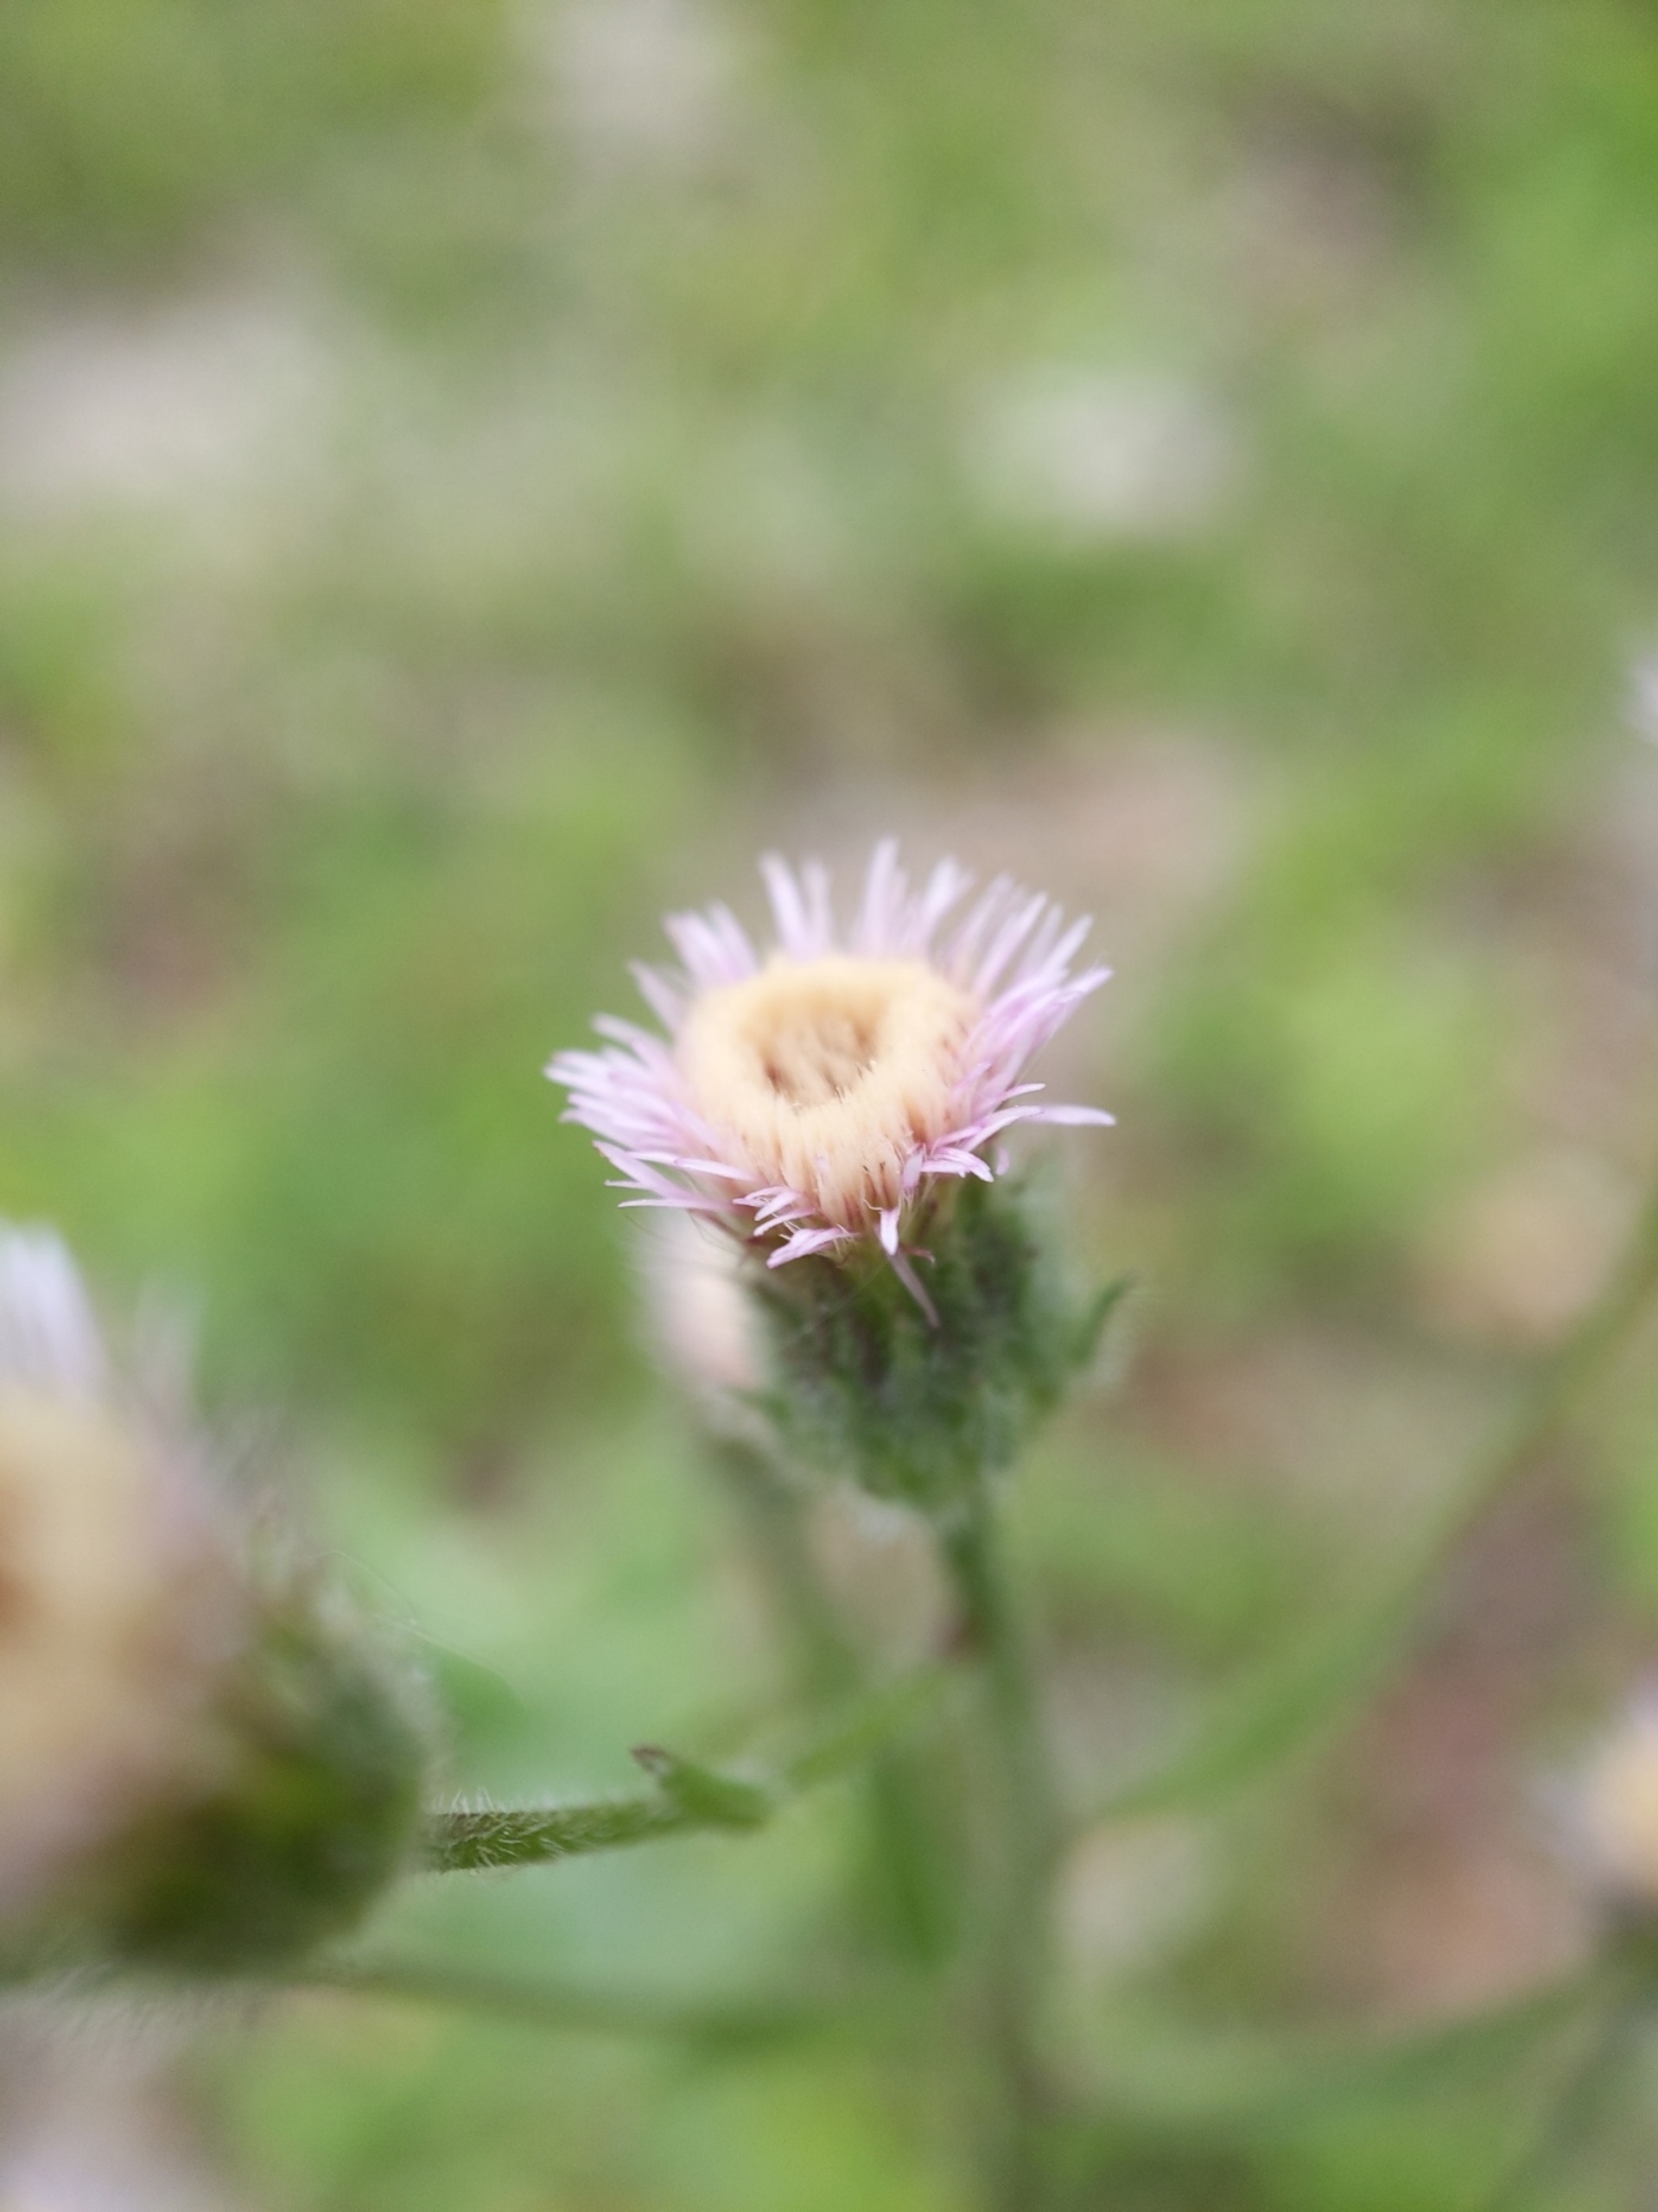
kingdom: Plantae
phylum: Tracheophyta
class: Magnoliopsida
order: Asterales
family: Asteraceae
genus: Erigeron
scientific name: Erigeron acris
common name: Bitter bakkestjerne
